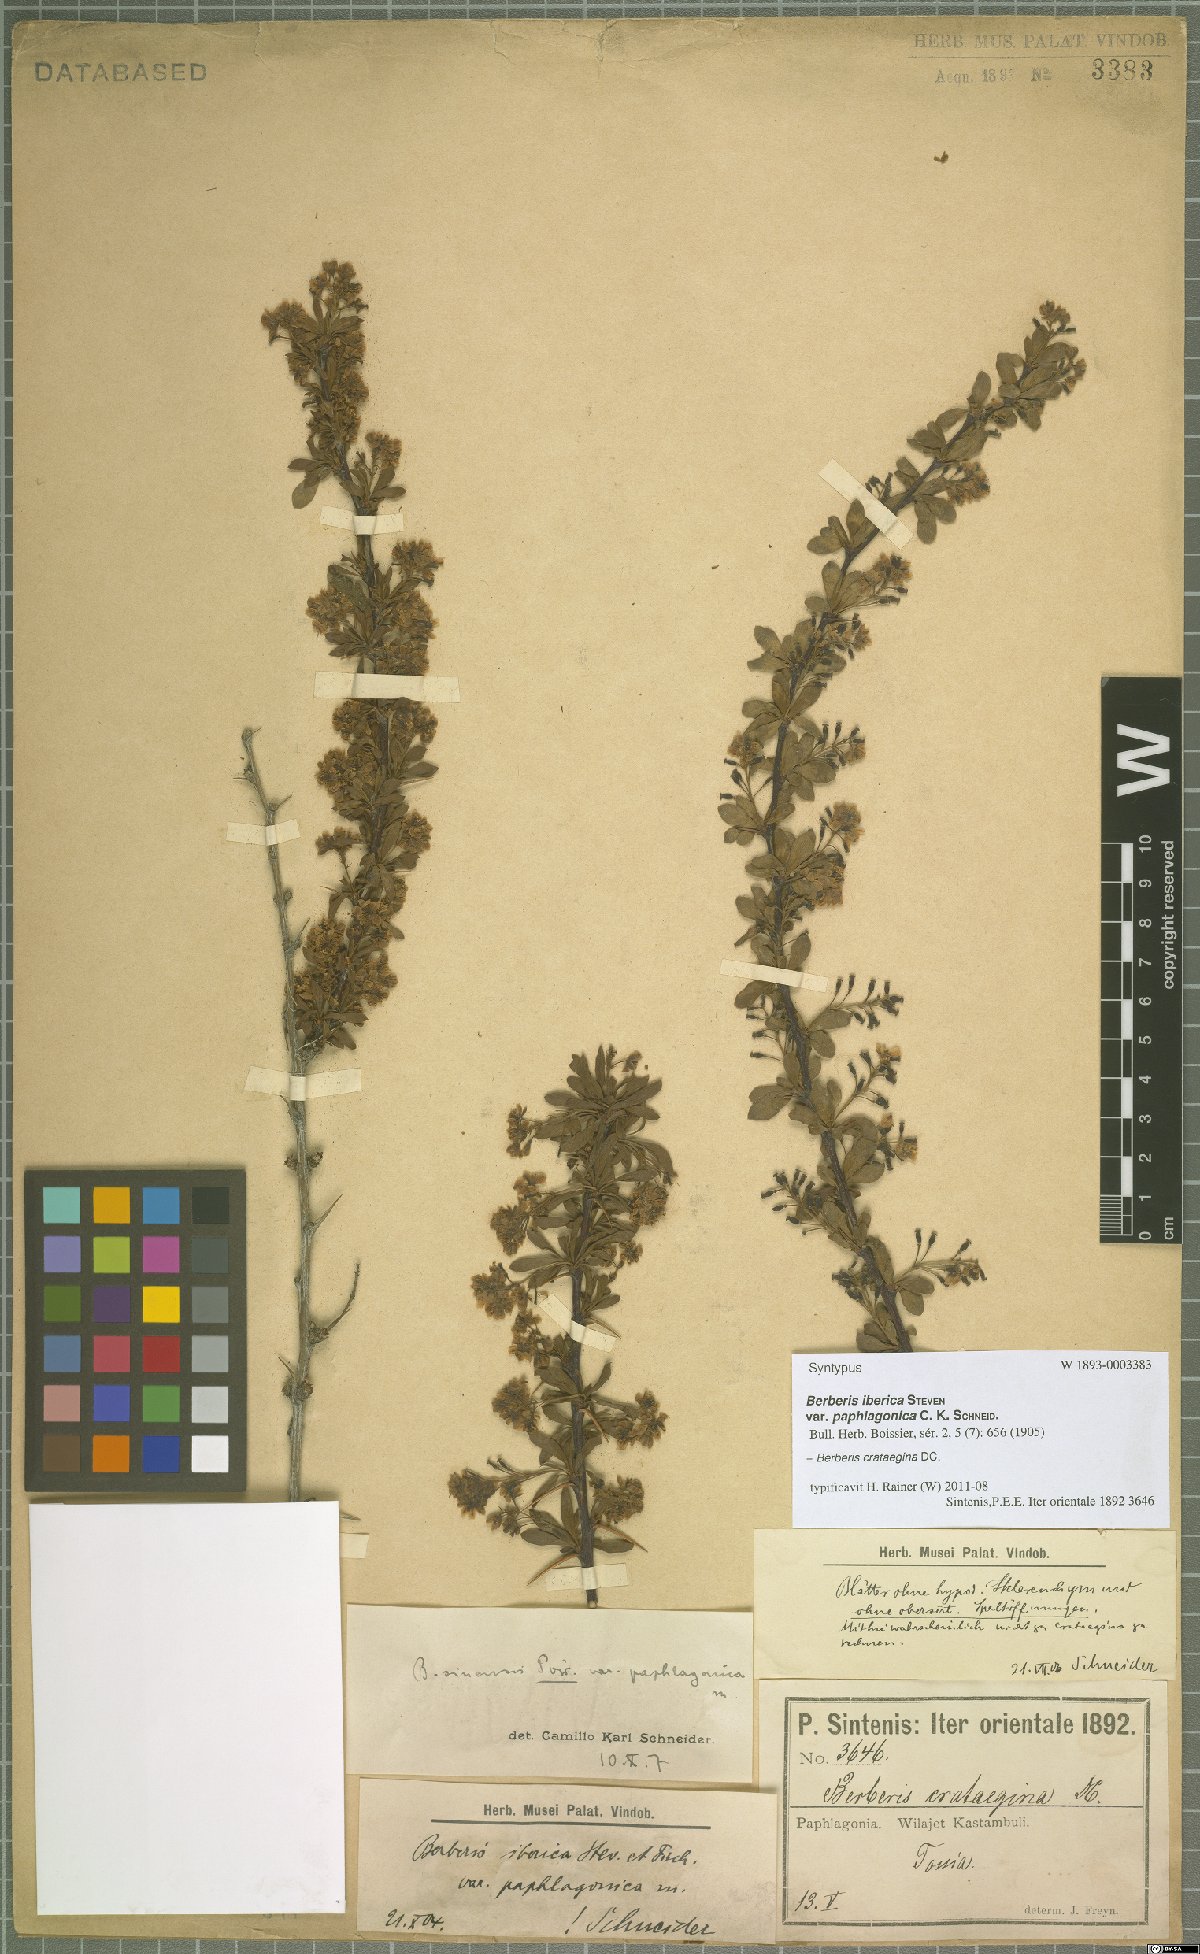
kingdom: Plantae
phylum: Tracheophyta
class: Magnoliopsida
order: Ranunculales
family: Berberidaceae
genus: Berberis
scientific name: Berberis crataegina
